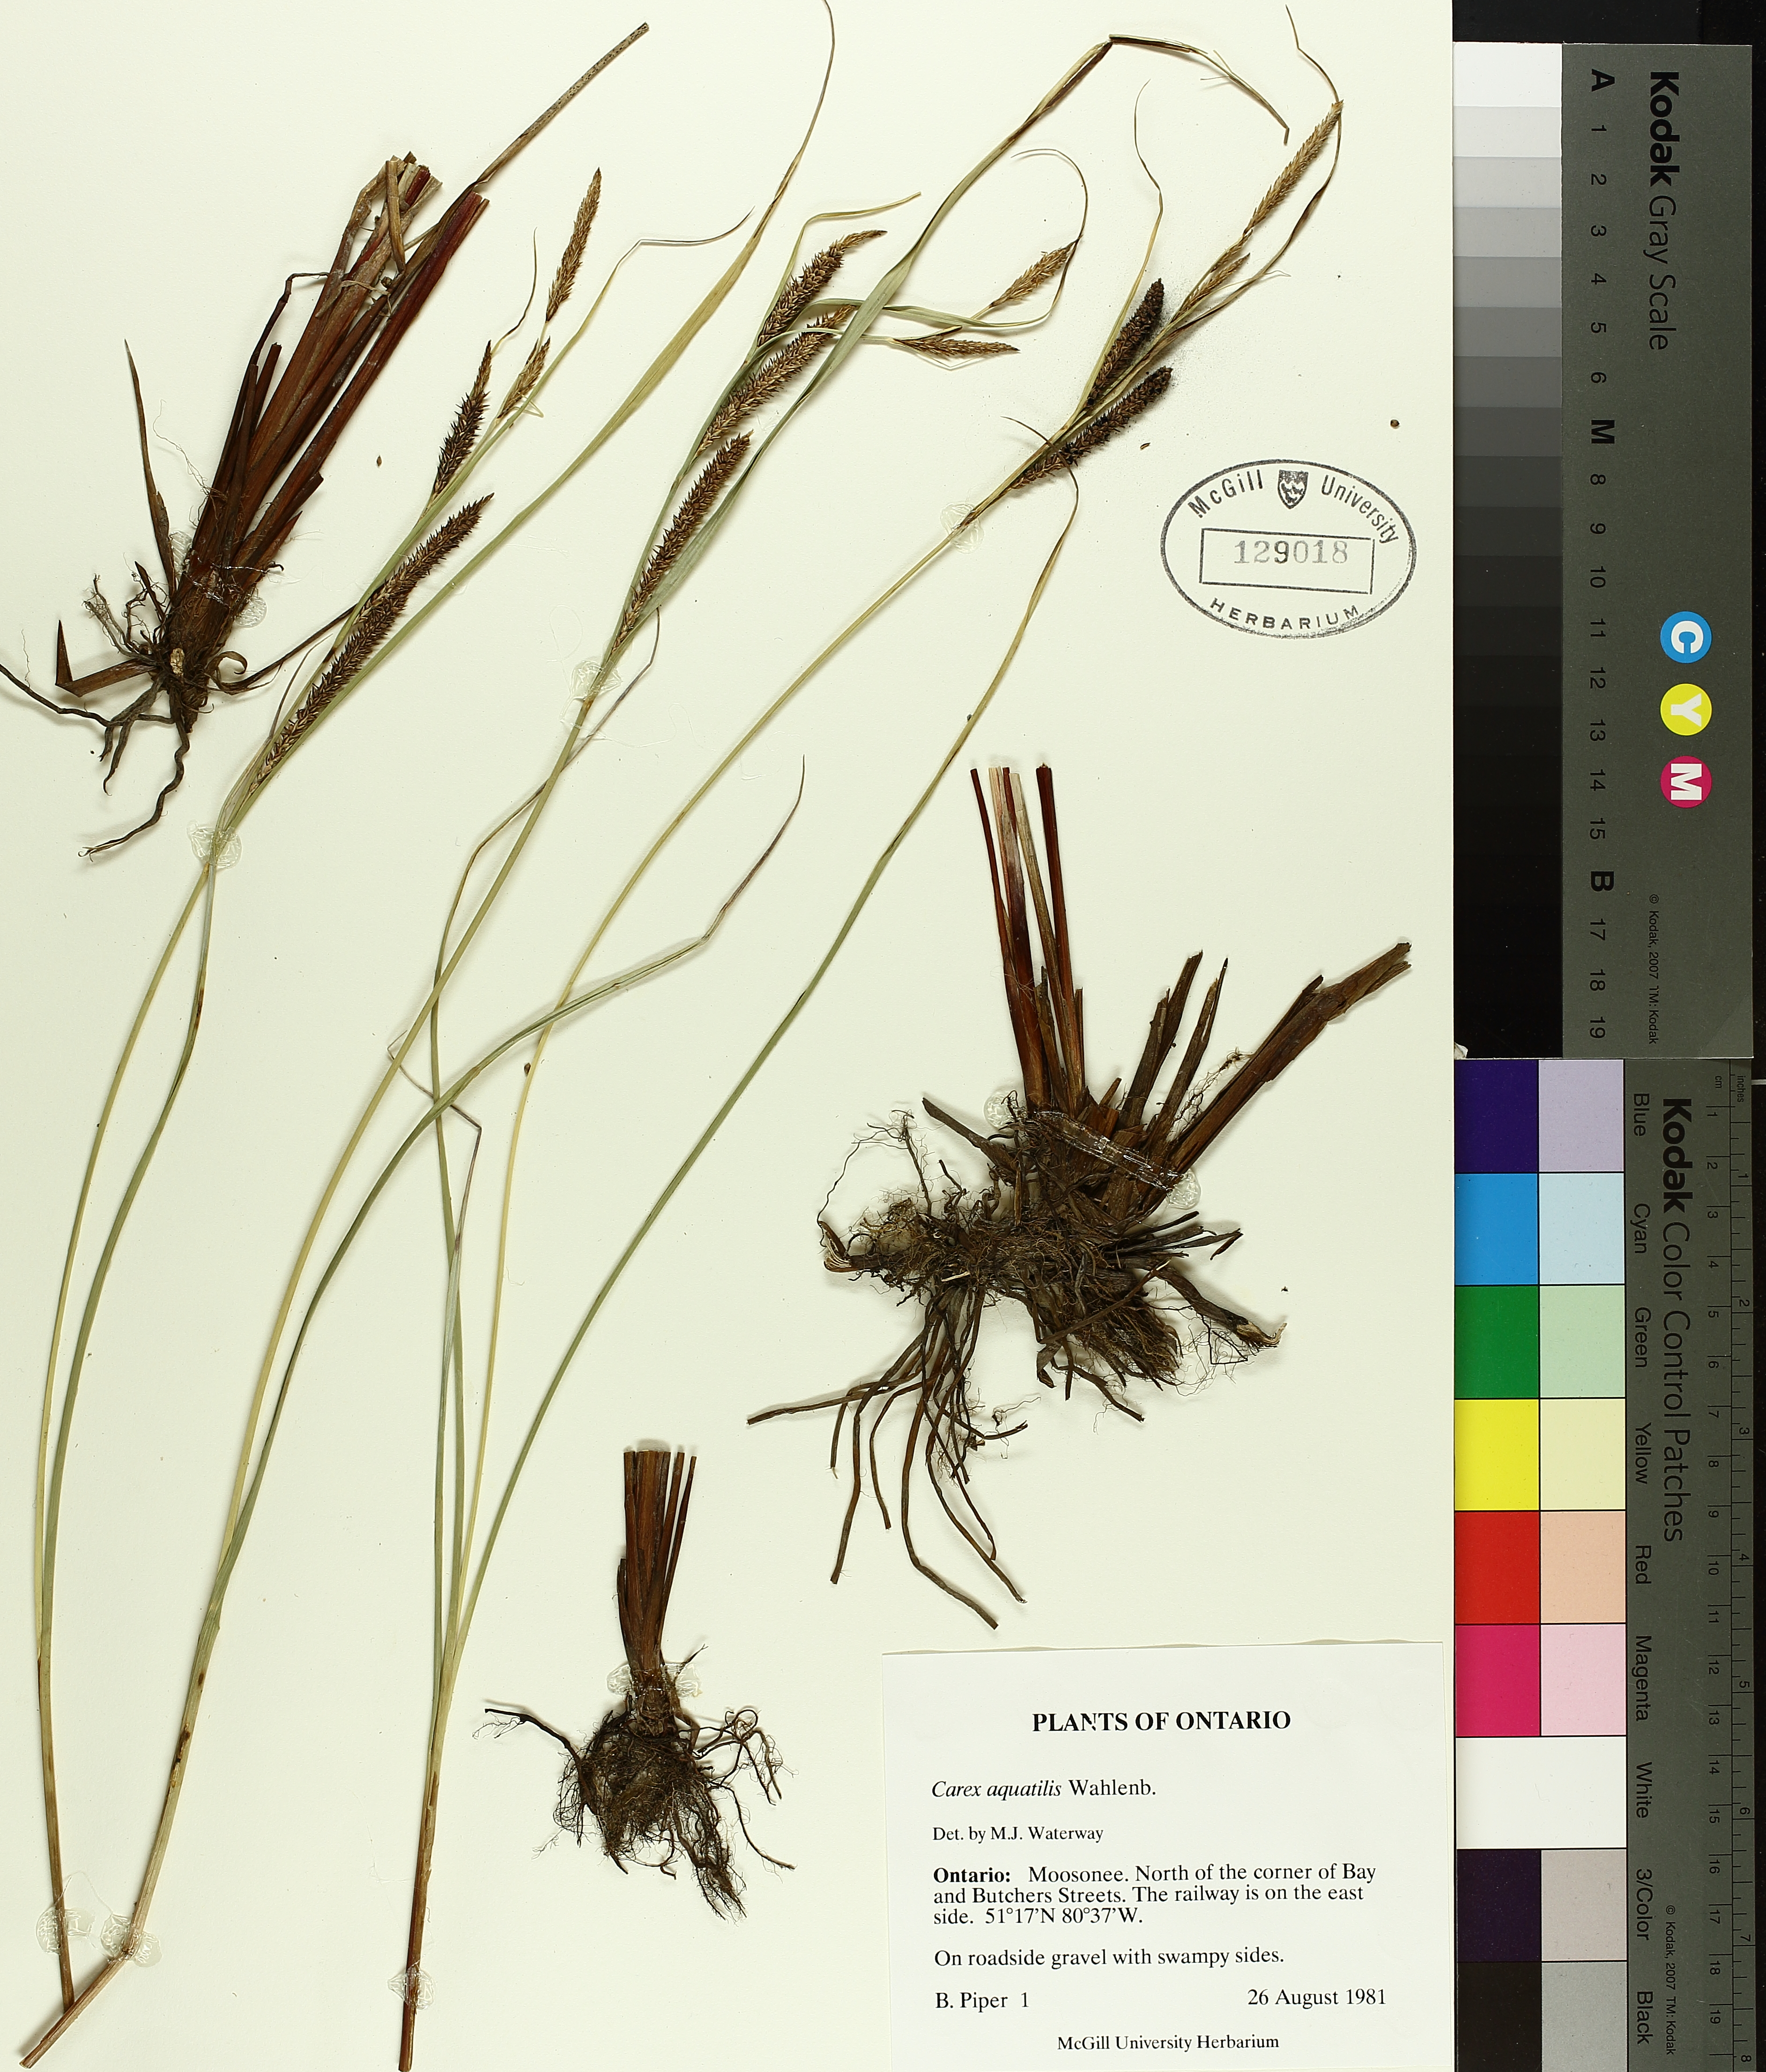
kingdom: Plantae
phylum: Tracheophyta
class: Liliopsida
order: Poales
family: Cyperaceae
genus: Carex
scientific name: Carex aquatilis
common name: Water sedge
